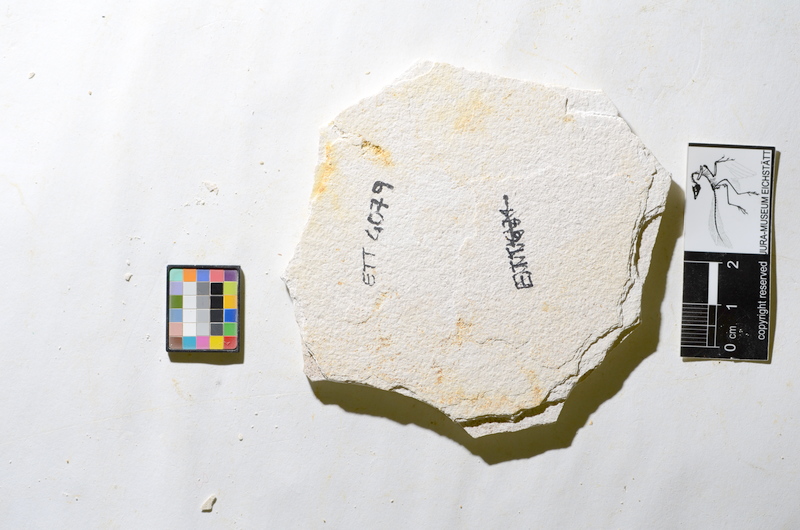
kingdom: Animalia
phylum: Chordata
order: Salmoniformes
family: Orthogonikleithridae
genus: Orthogonikleithrus
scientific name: Orthogonikleithrus hoelli
